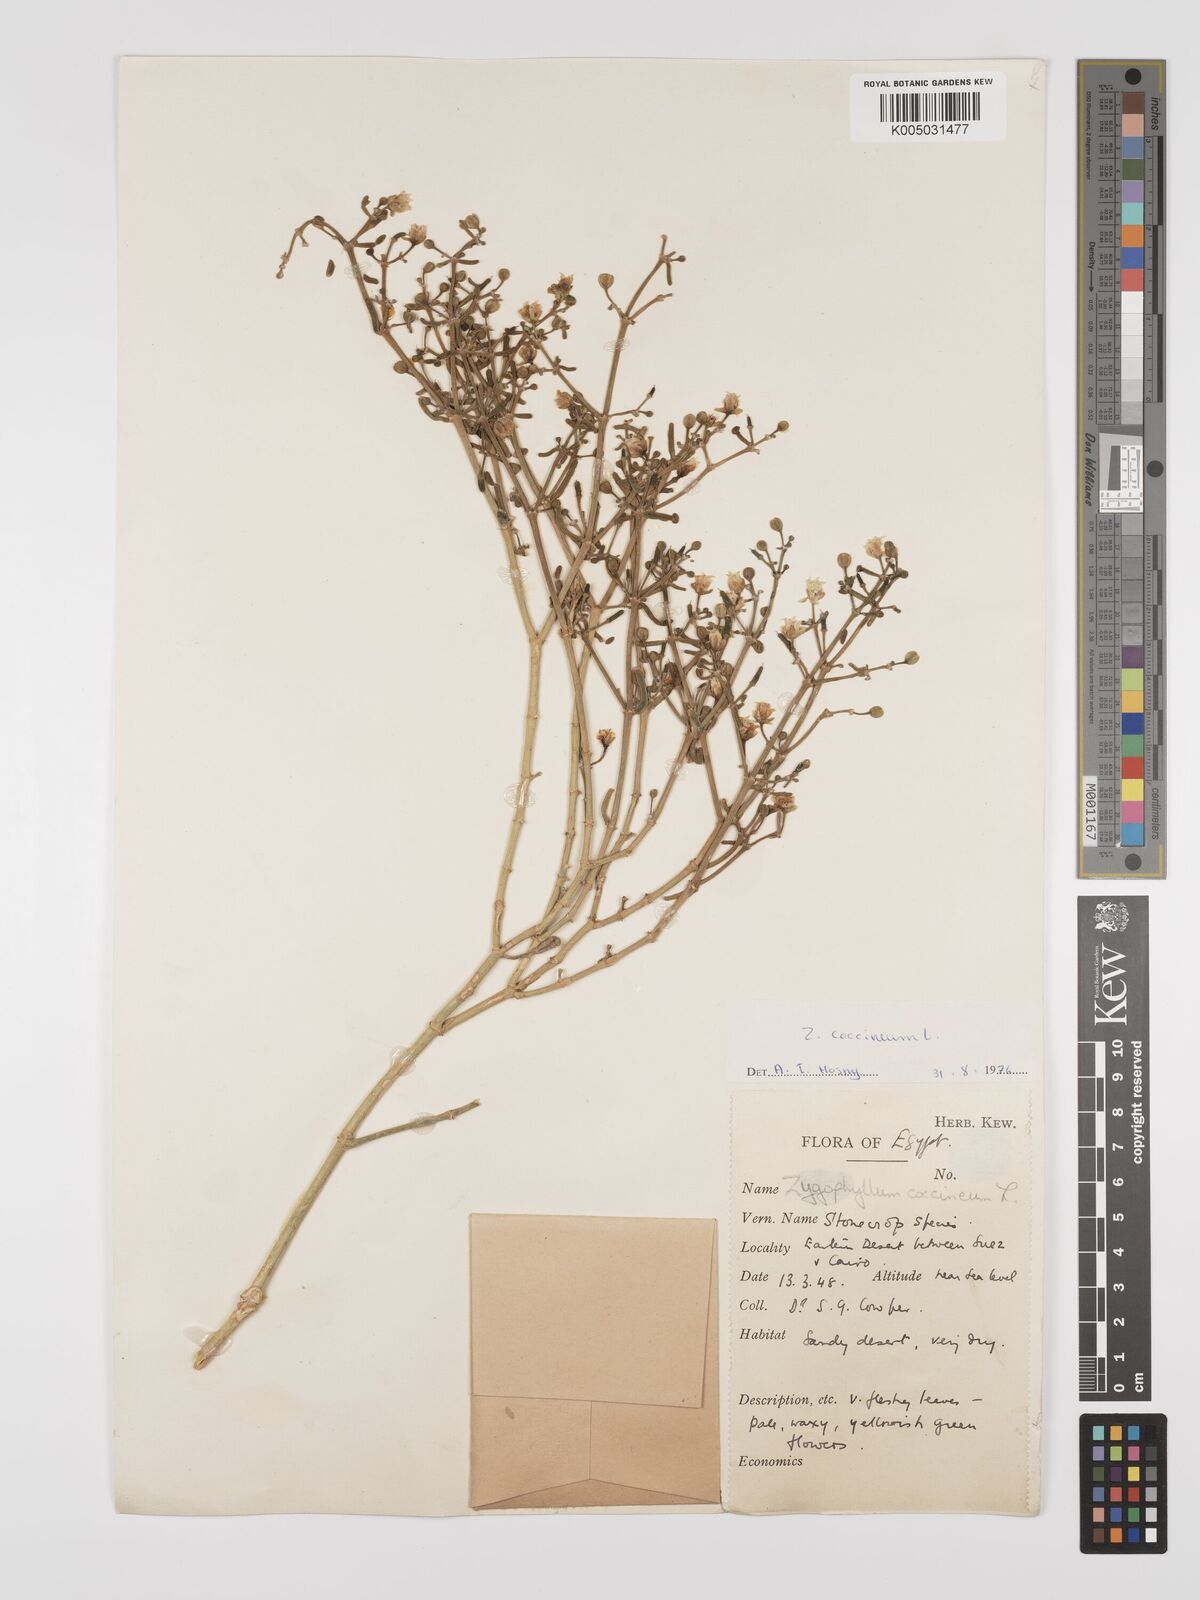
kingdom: Plantae
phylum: Tracheophyta
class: Magnoliopsida
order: Zygophyllales
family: Zygophyllaceae
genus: Tetraena
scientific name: Tetraena coccinea
